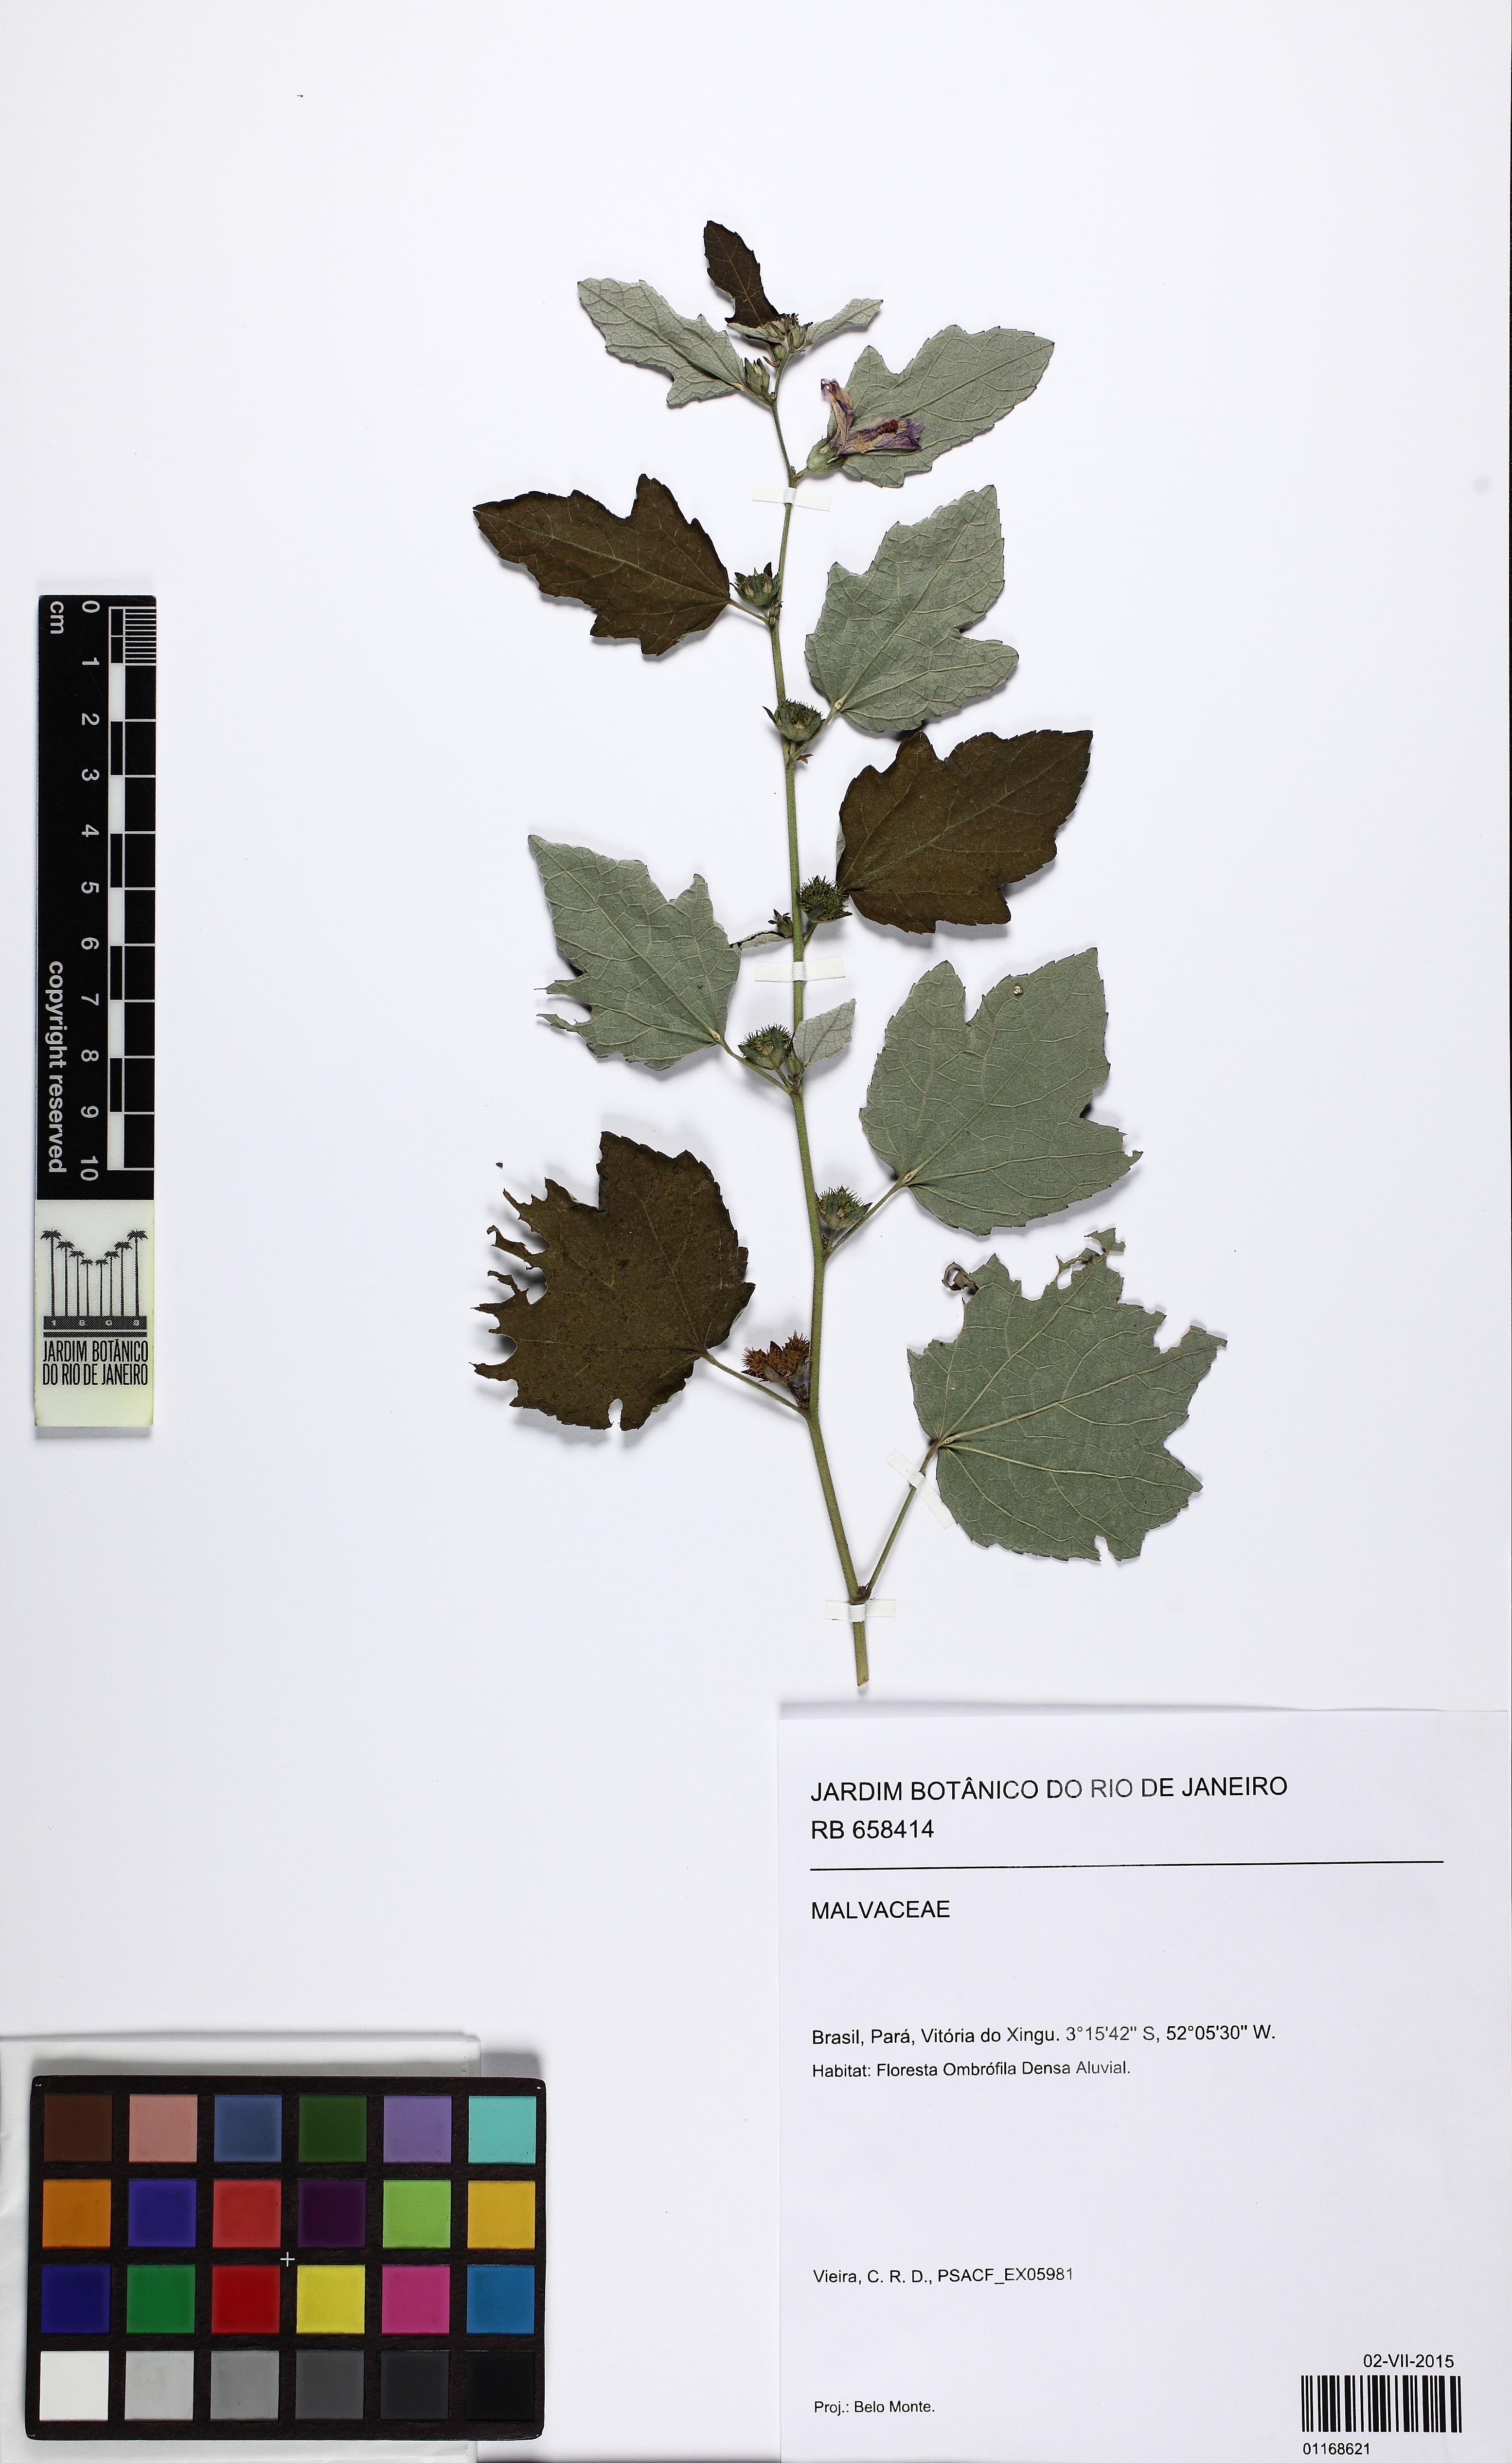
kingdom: Plantae
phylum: Tracheophyta
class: Magnoliopsida
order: Malvales
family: Malvaceae
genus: Urena
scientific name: Urena lobata
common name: Caesarweed
